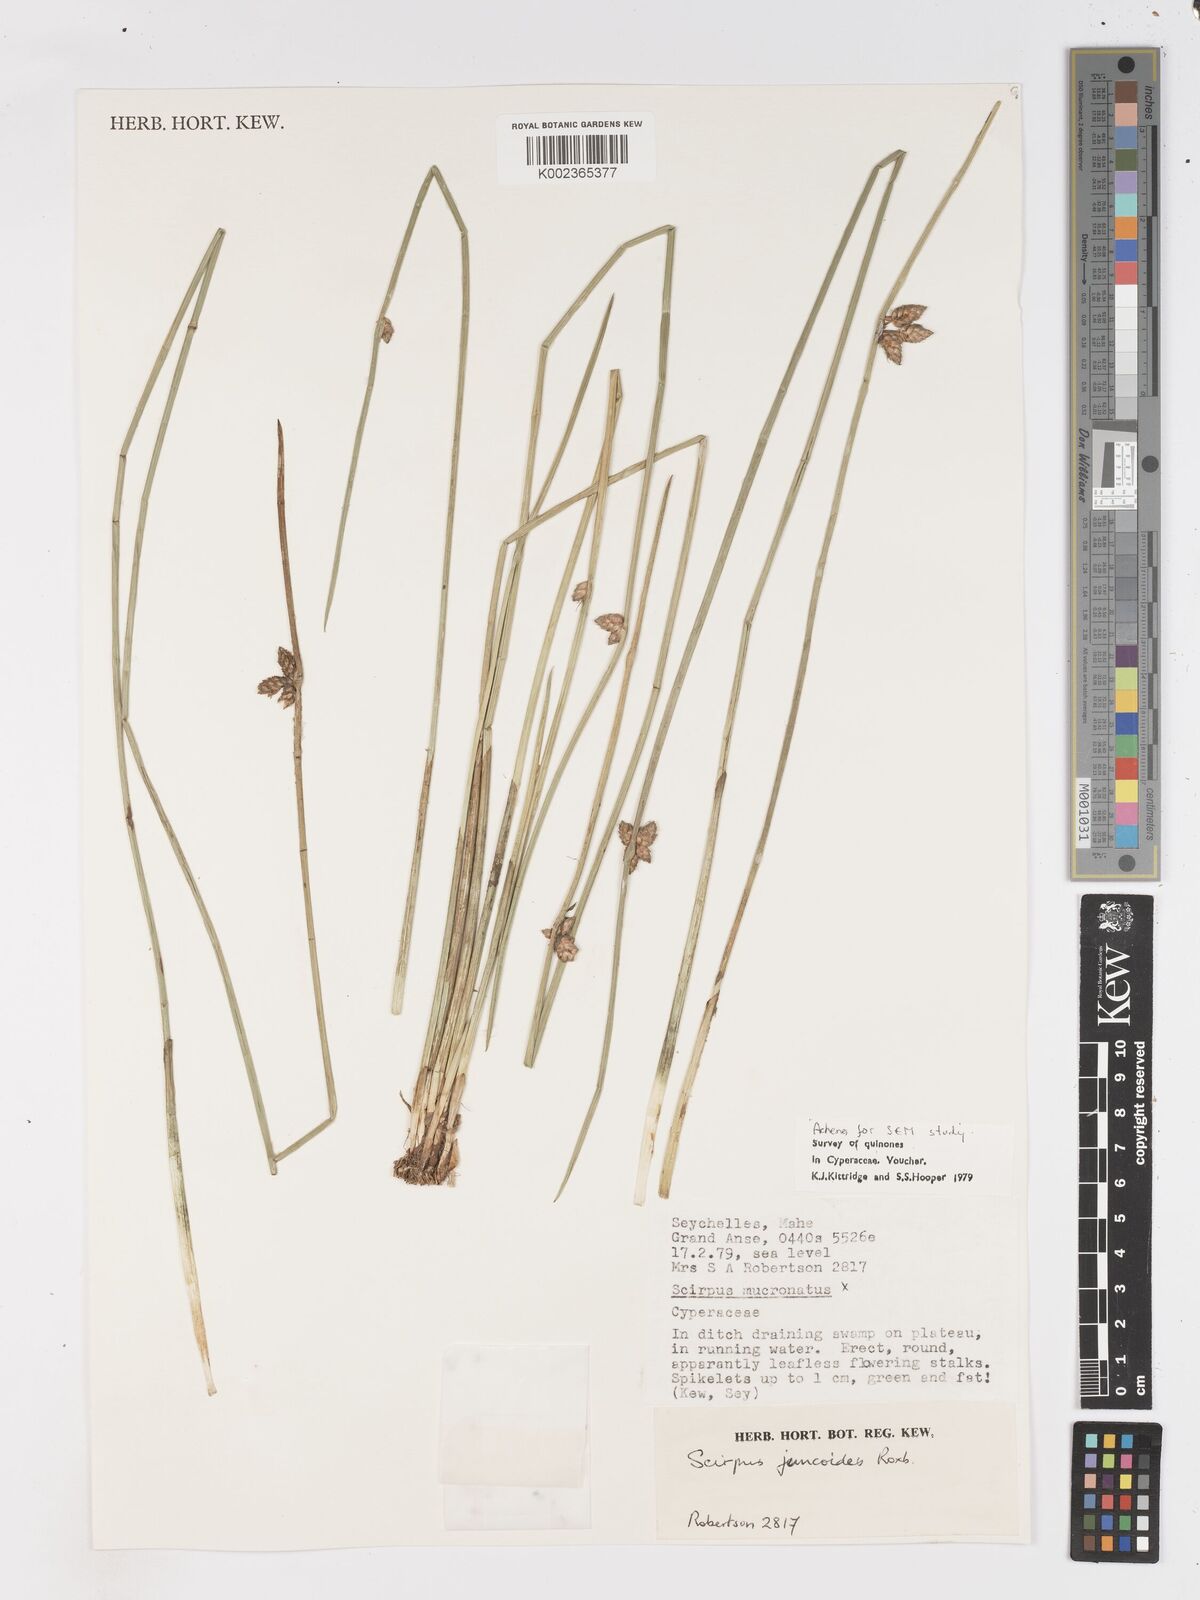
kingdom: Plantae
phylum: Tracheophyta
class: Liliopsida
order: Poales
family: Cyperaceae
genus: Schoenoplectiella
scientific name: Schoenoplectiella juncoides
